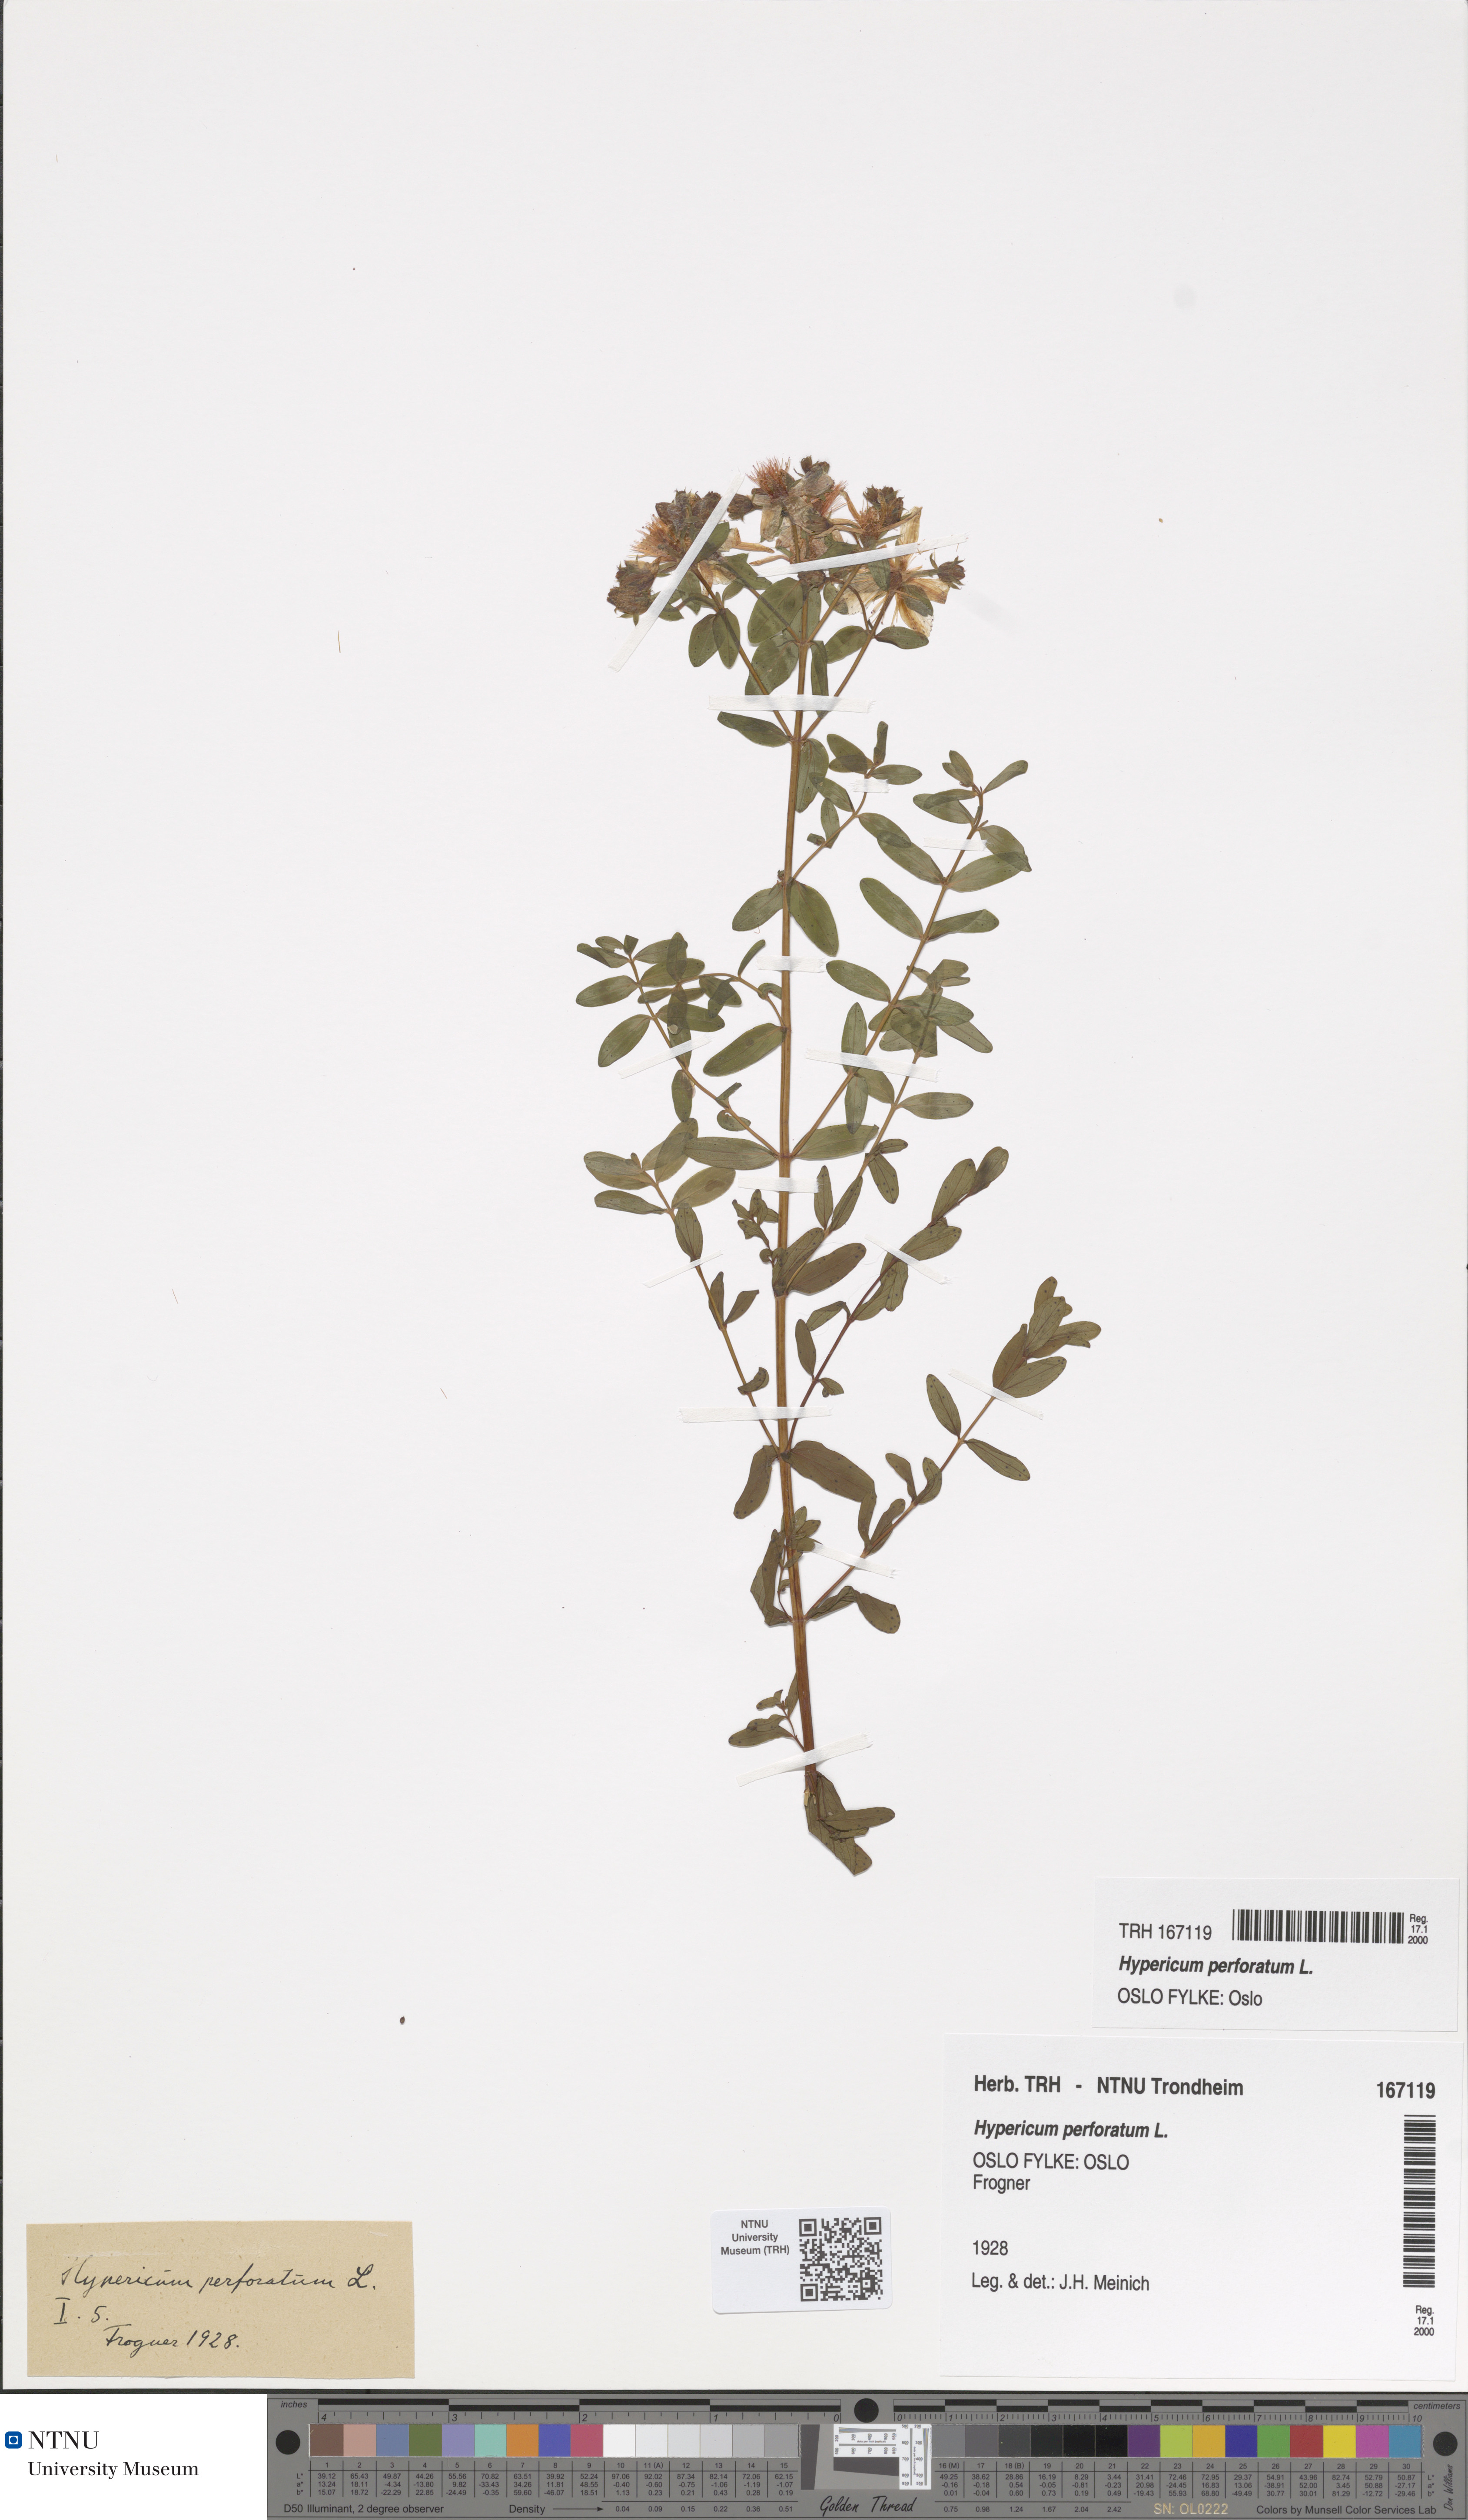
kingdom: Plantae
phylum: Tracheophyta
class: Magnoliopsida
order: Malpighiales
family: Hypericaceae
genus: Hypericum
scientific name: Hypericum perforatum
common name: Common st. johnswort
